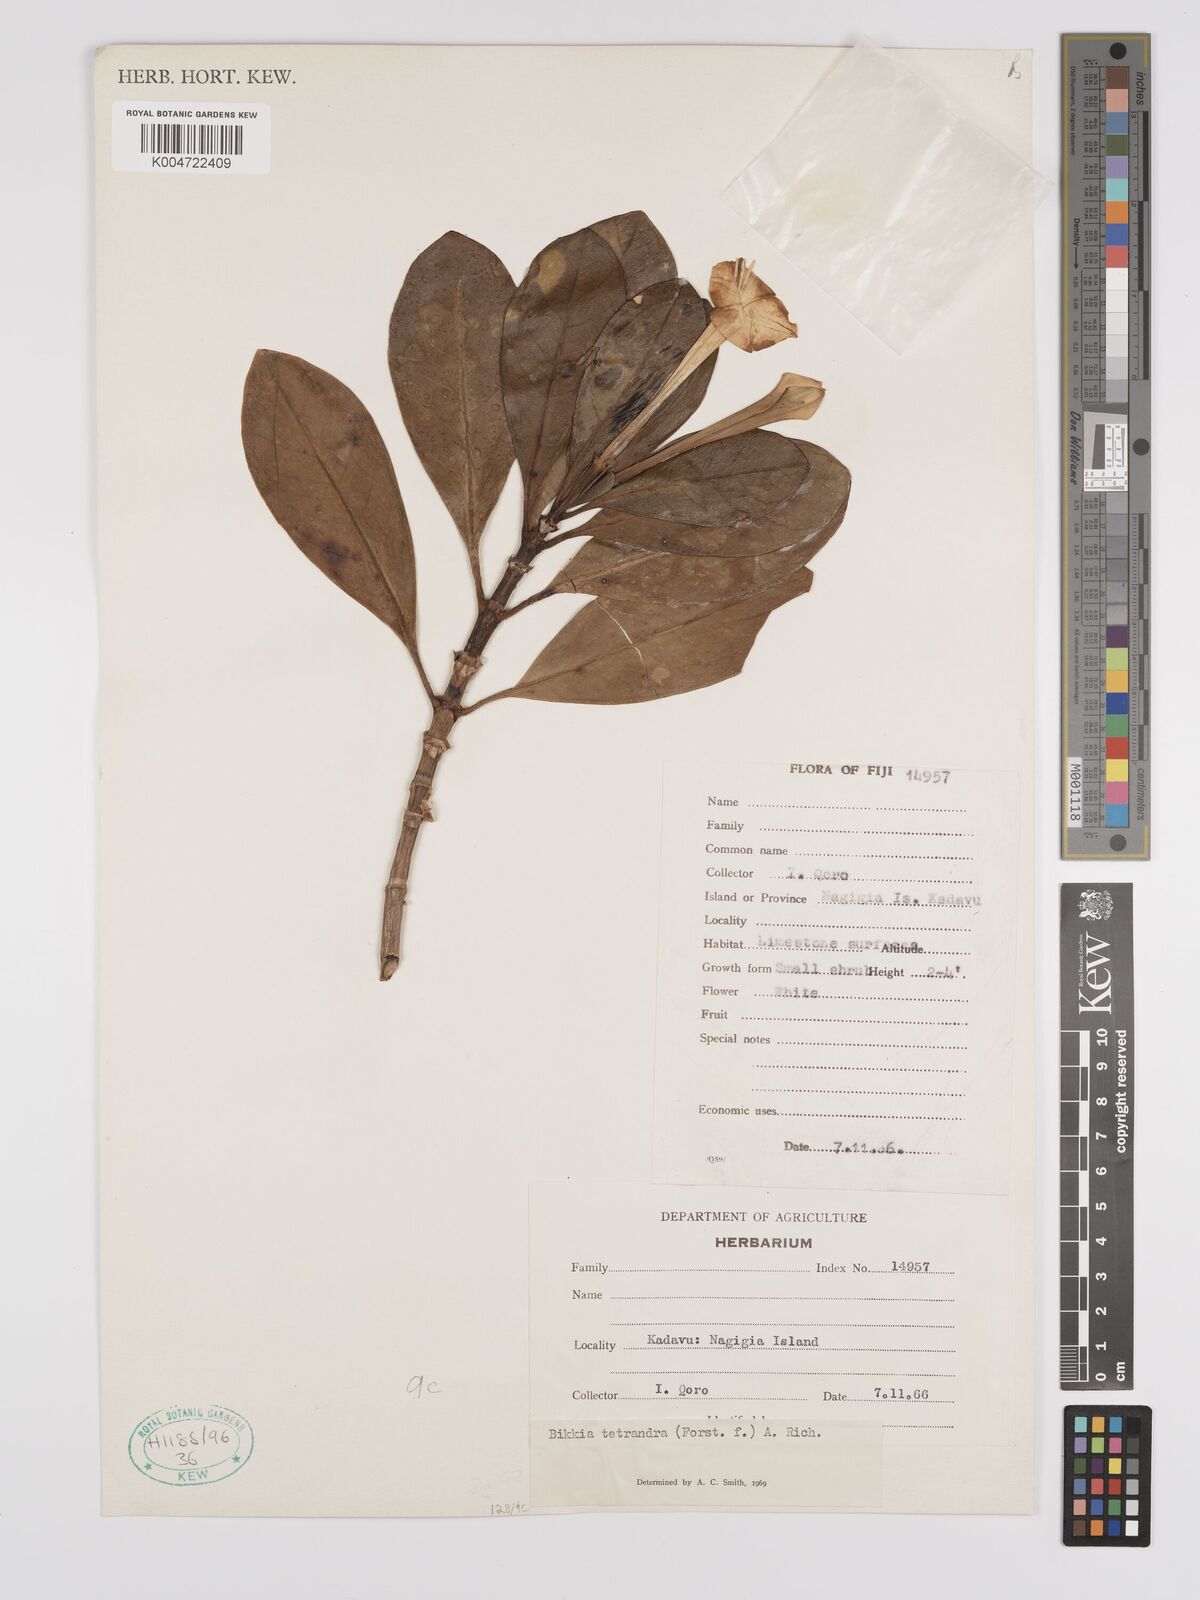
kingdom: Plantae
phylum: Tracheophyta
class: Magnoliopsida
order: Gentianales
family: Rubiaceae
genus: Bikkia
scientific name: Bikkia
